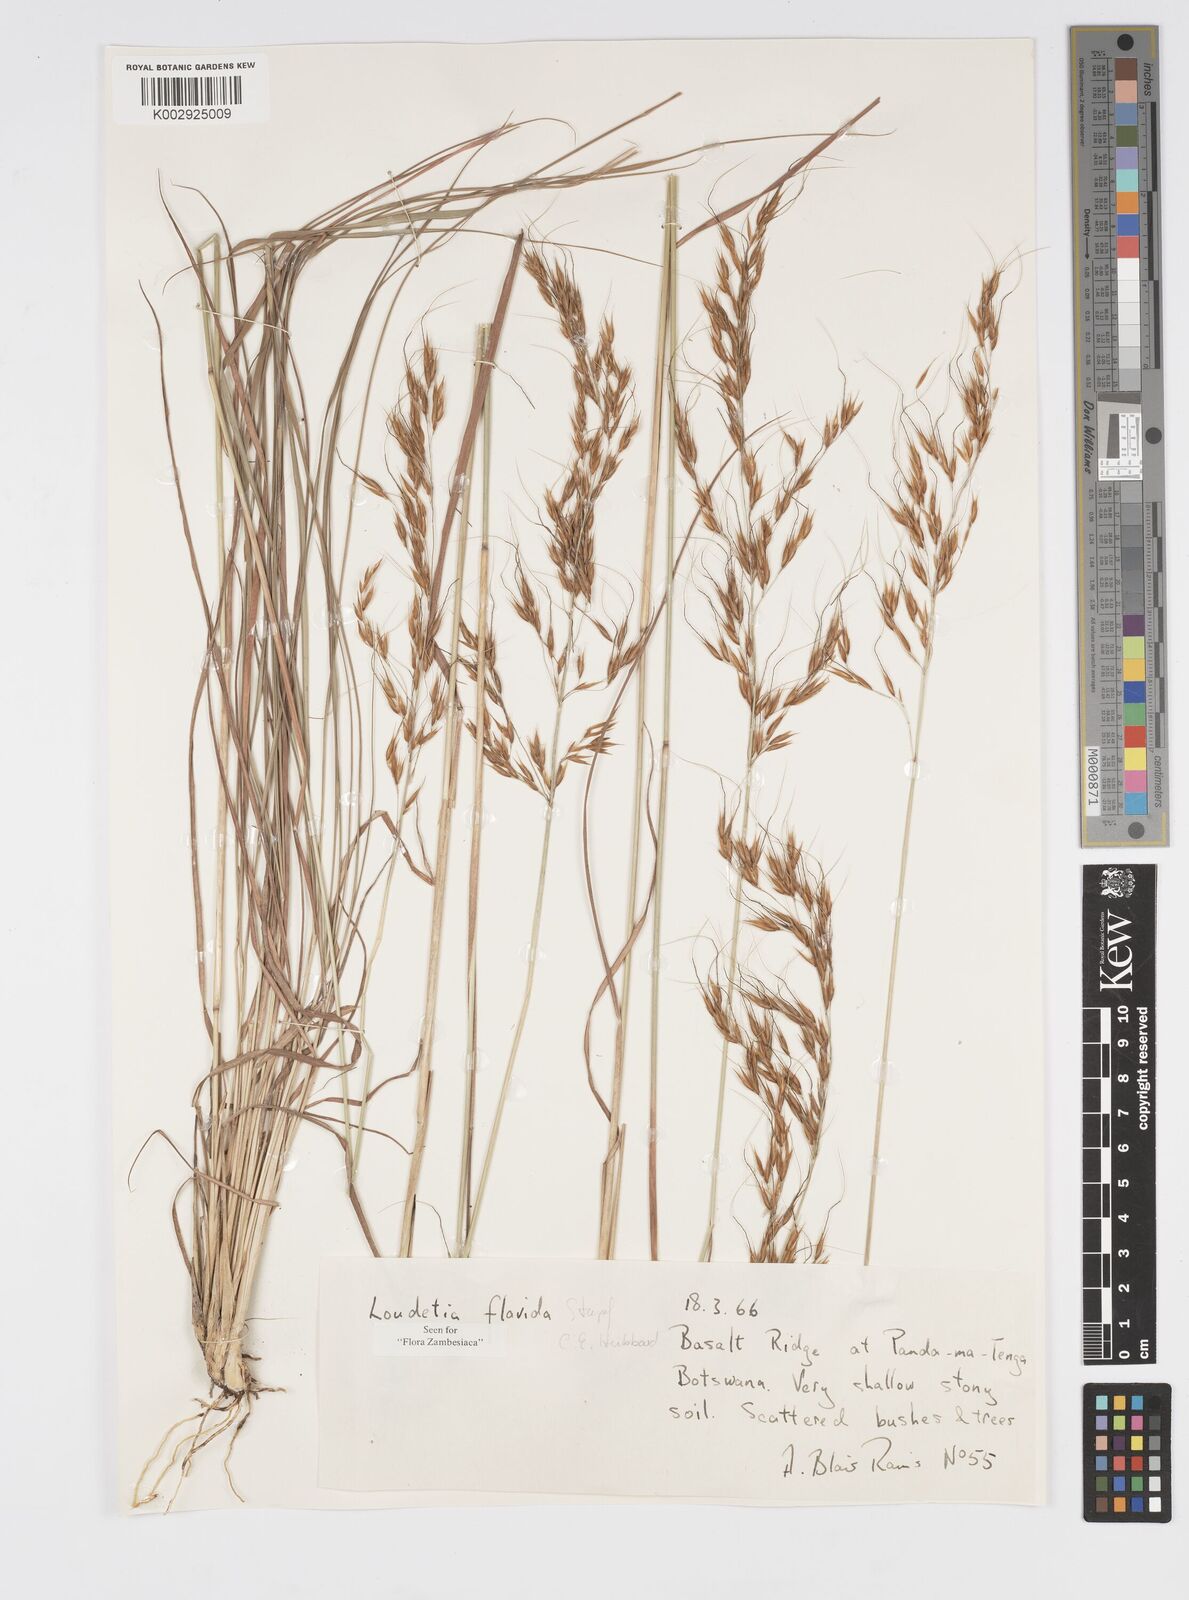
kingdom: Plantae
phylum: Tracheophyta
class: Liliopsida
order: Poales
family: Poaceae
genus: Loudetia
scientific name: Loudetia flavida
